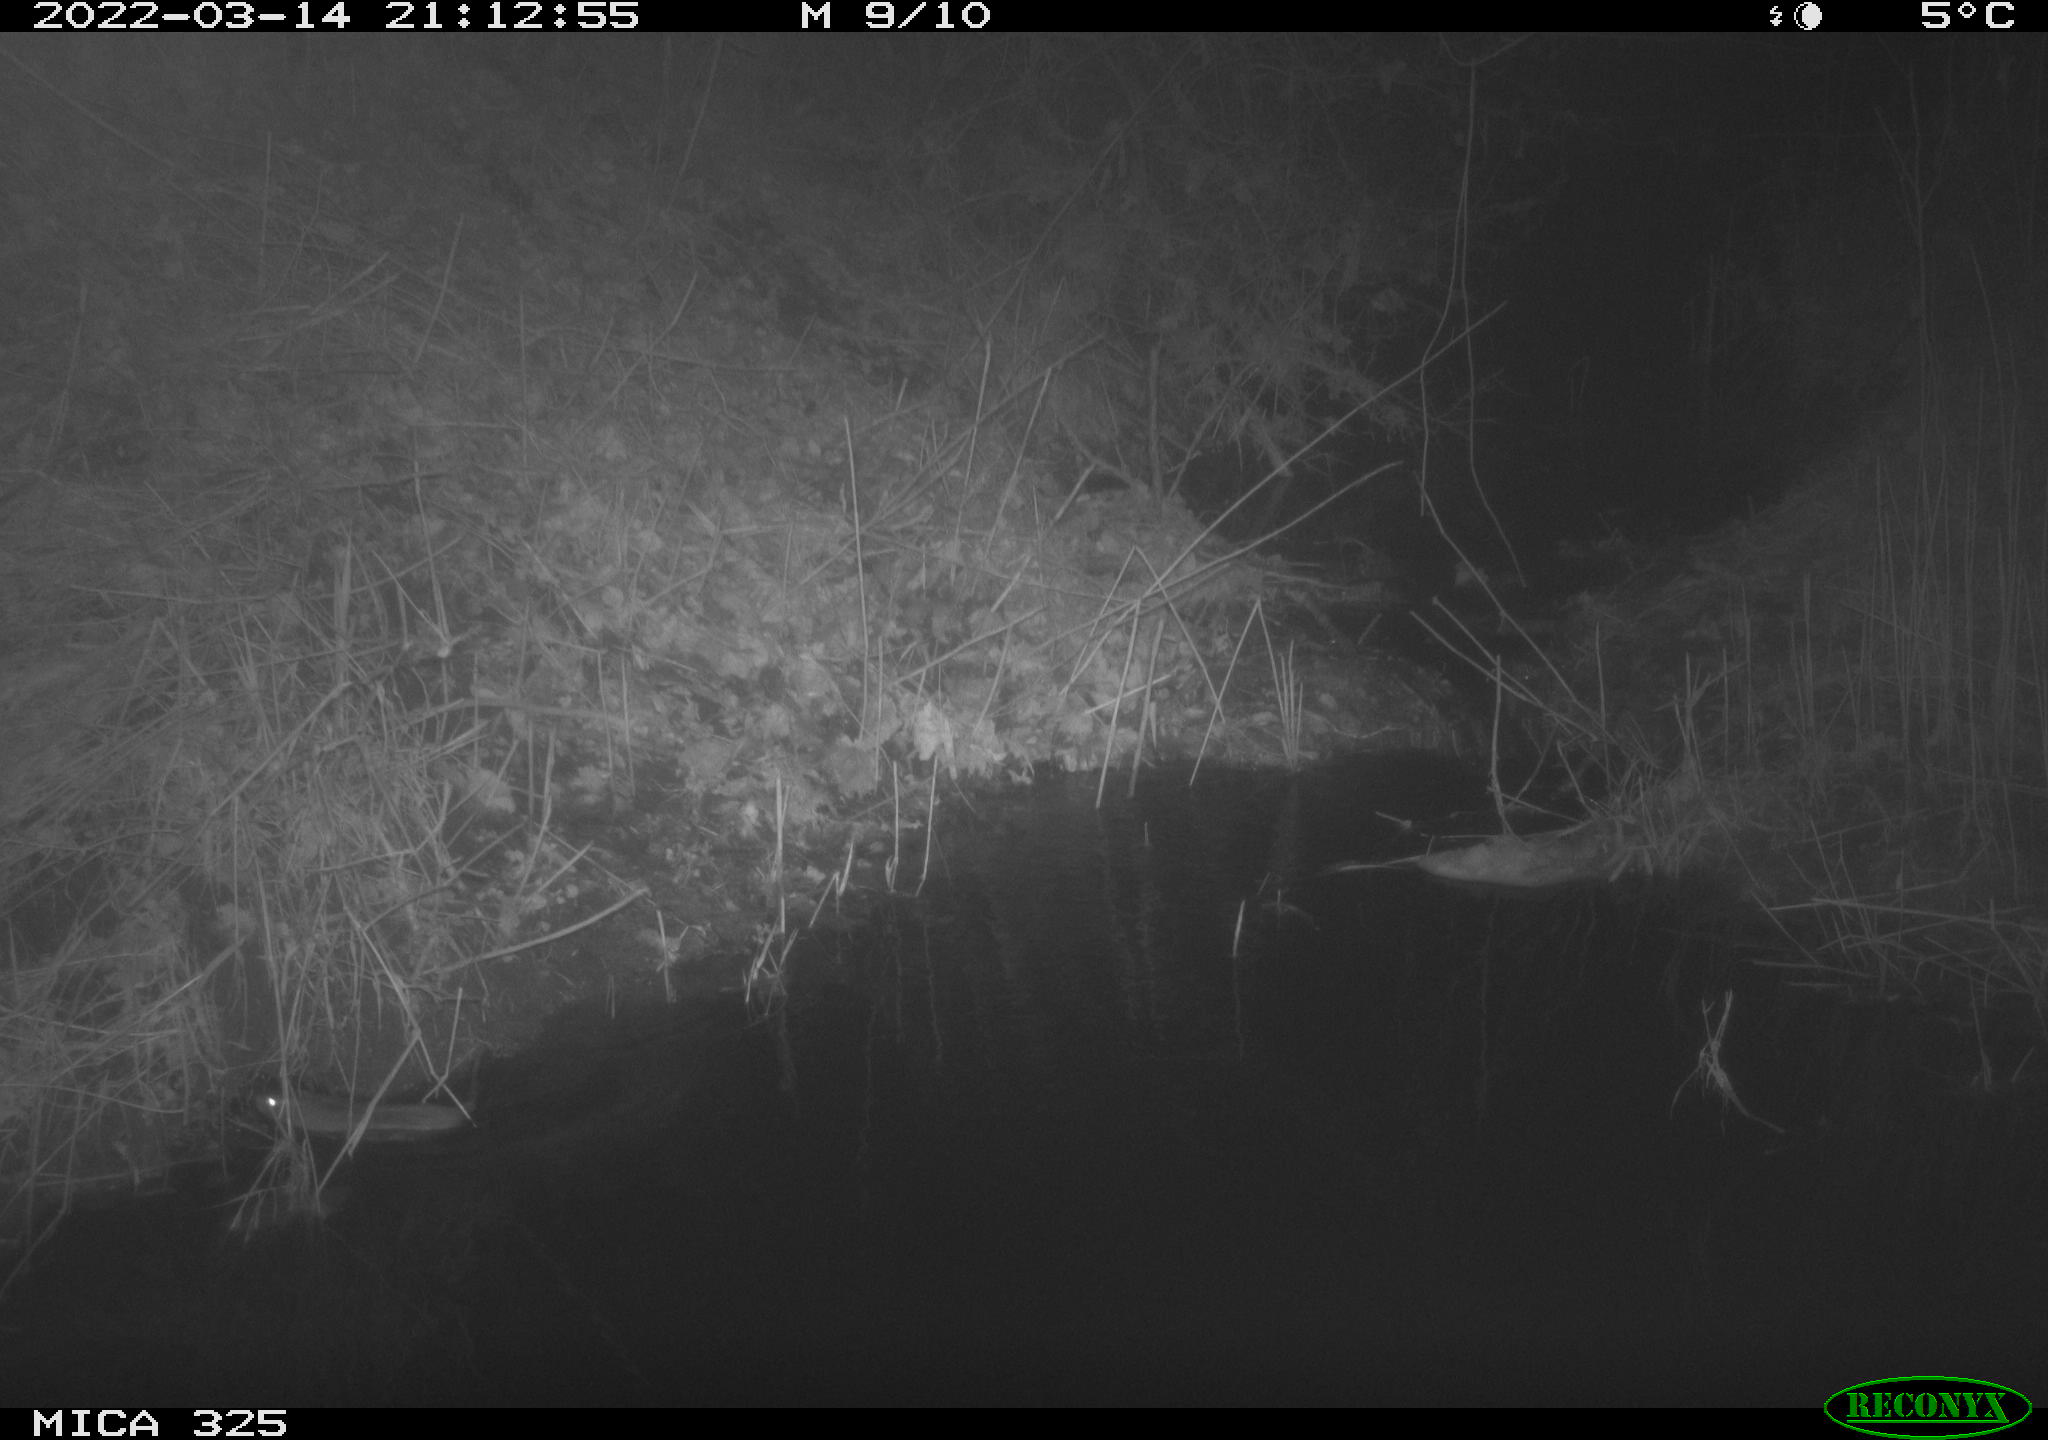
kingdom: Animalia
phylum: Chordata
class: Mammalia
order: Rodentia
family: Muridae
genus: Rattus
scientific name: Rattus norvegicus
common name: Brown rat
